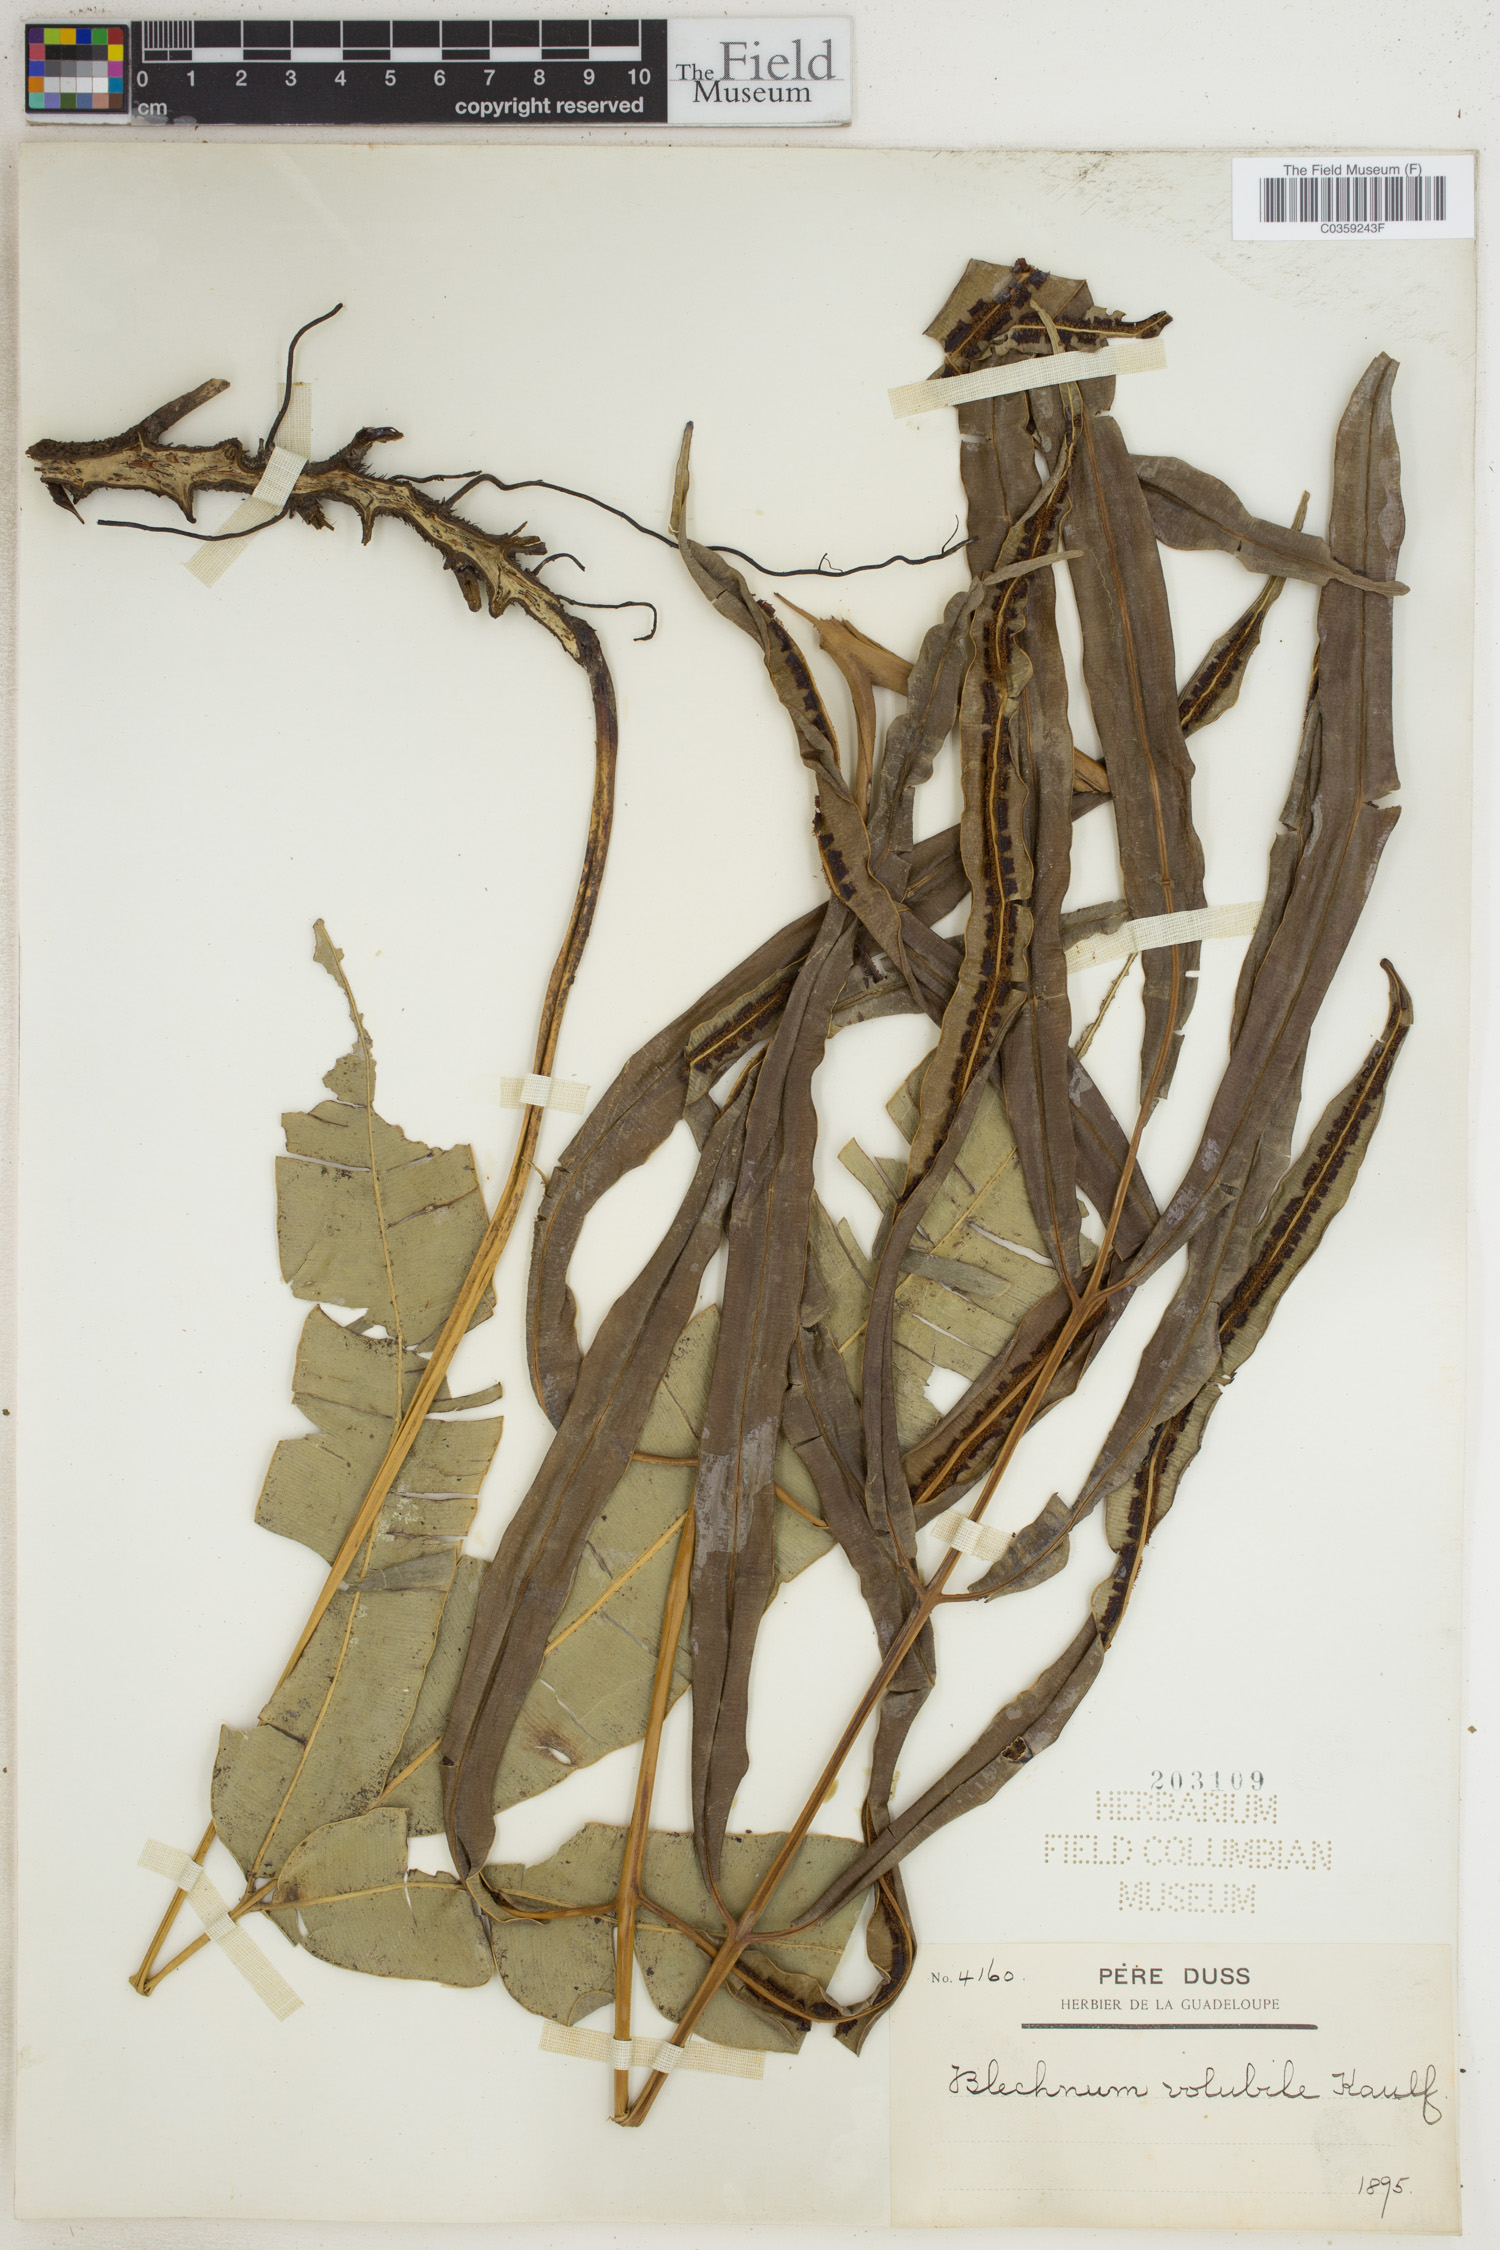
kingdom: Plantae
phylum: Tracheophyta
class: Polypodiopsida
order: Polypodiales
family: Blechnaceae
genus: Salpichlaena
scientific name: Salpichlaena volubilis
